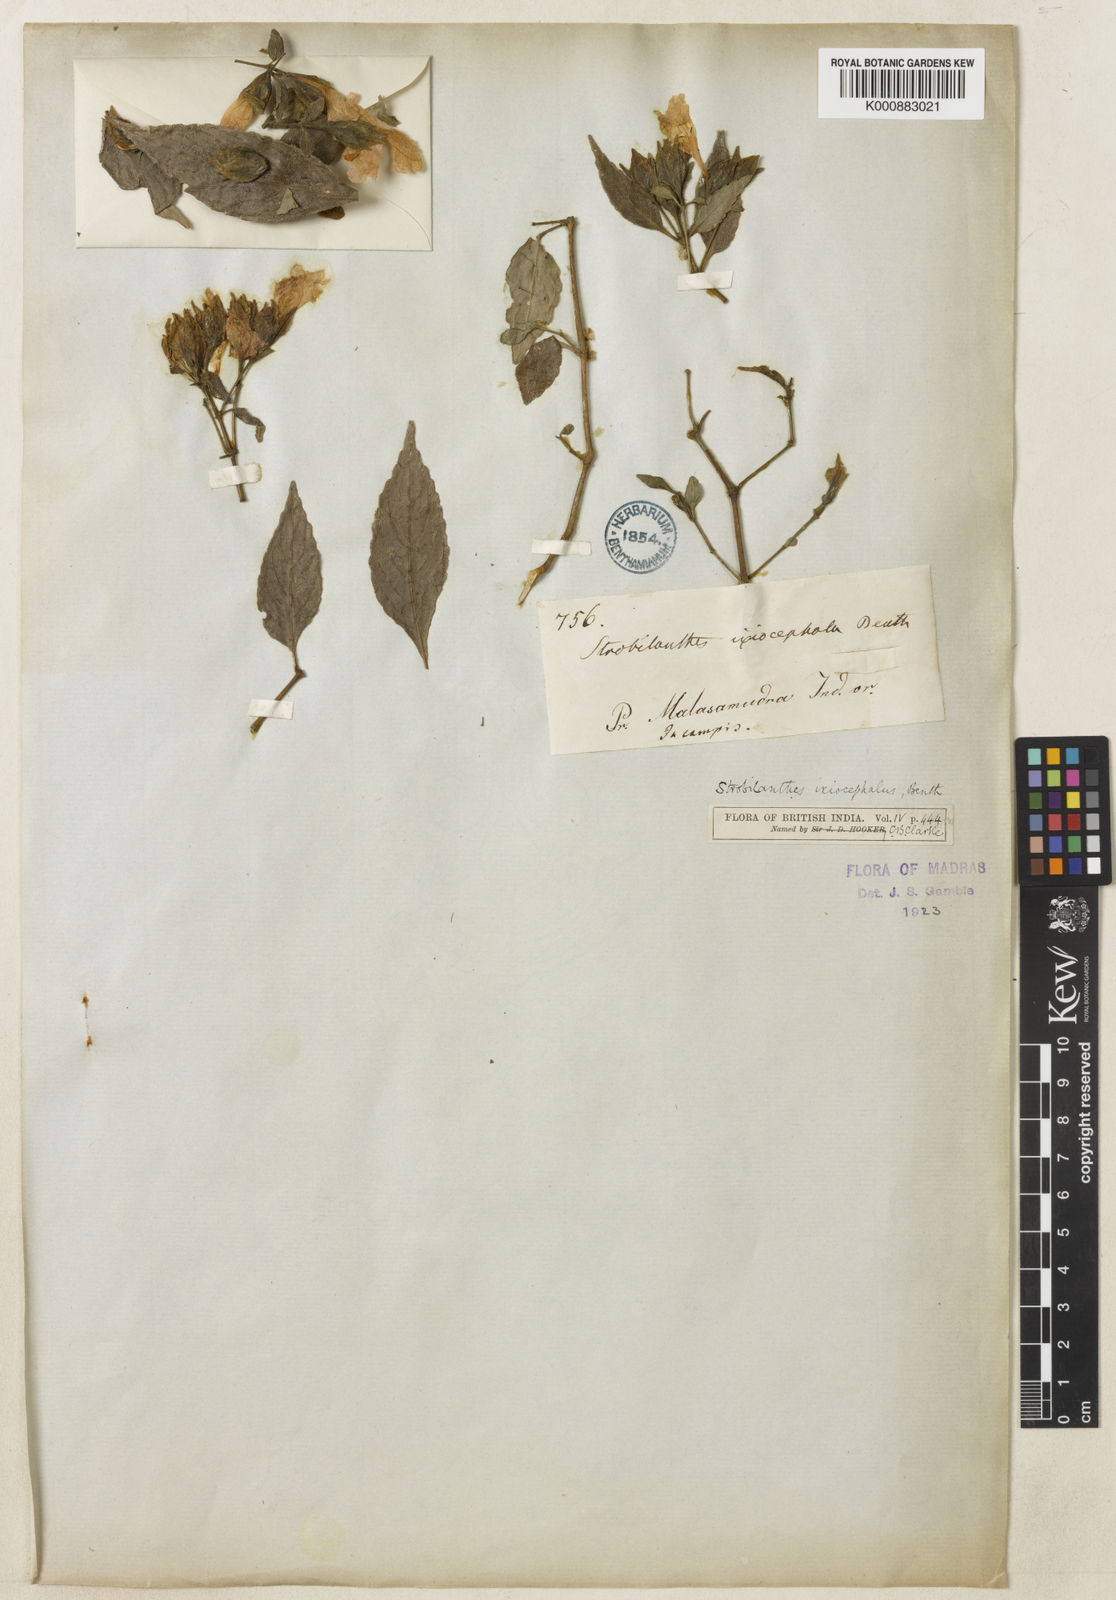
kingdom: Plantae
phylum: Tracheophyta
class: Magnoliopsida
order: Lamiales
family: Acanthaceae
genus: Strobilanthes
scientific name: Strobilanthes ixiocephala
